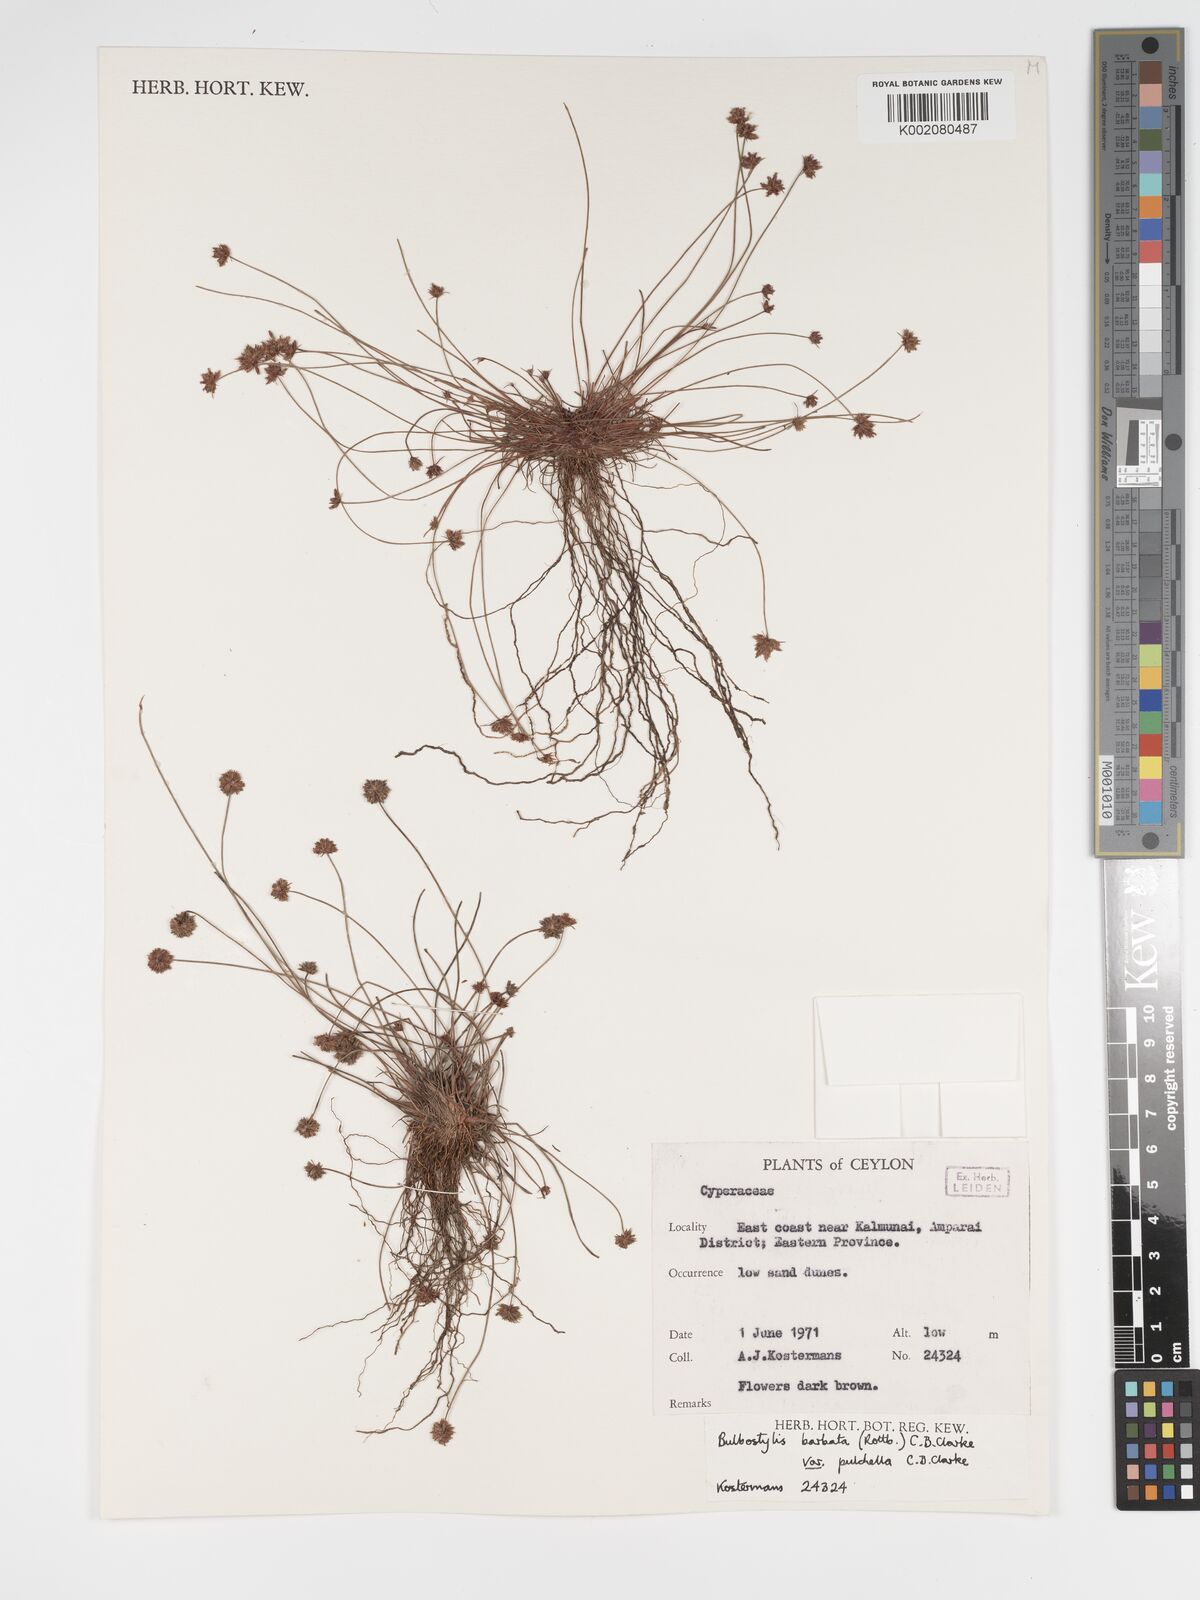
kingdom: Plantae
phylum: Tracheophyta
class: Liliopsida
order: Poales
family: Cyperaceae
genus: Bulbostylis
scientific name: Bulbostylis barbata
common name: Watergrass
